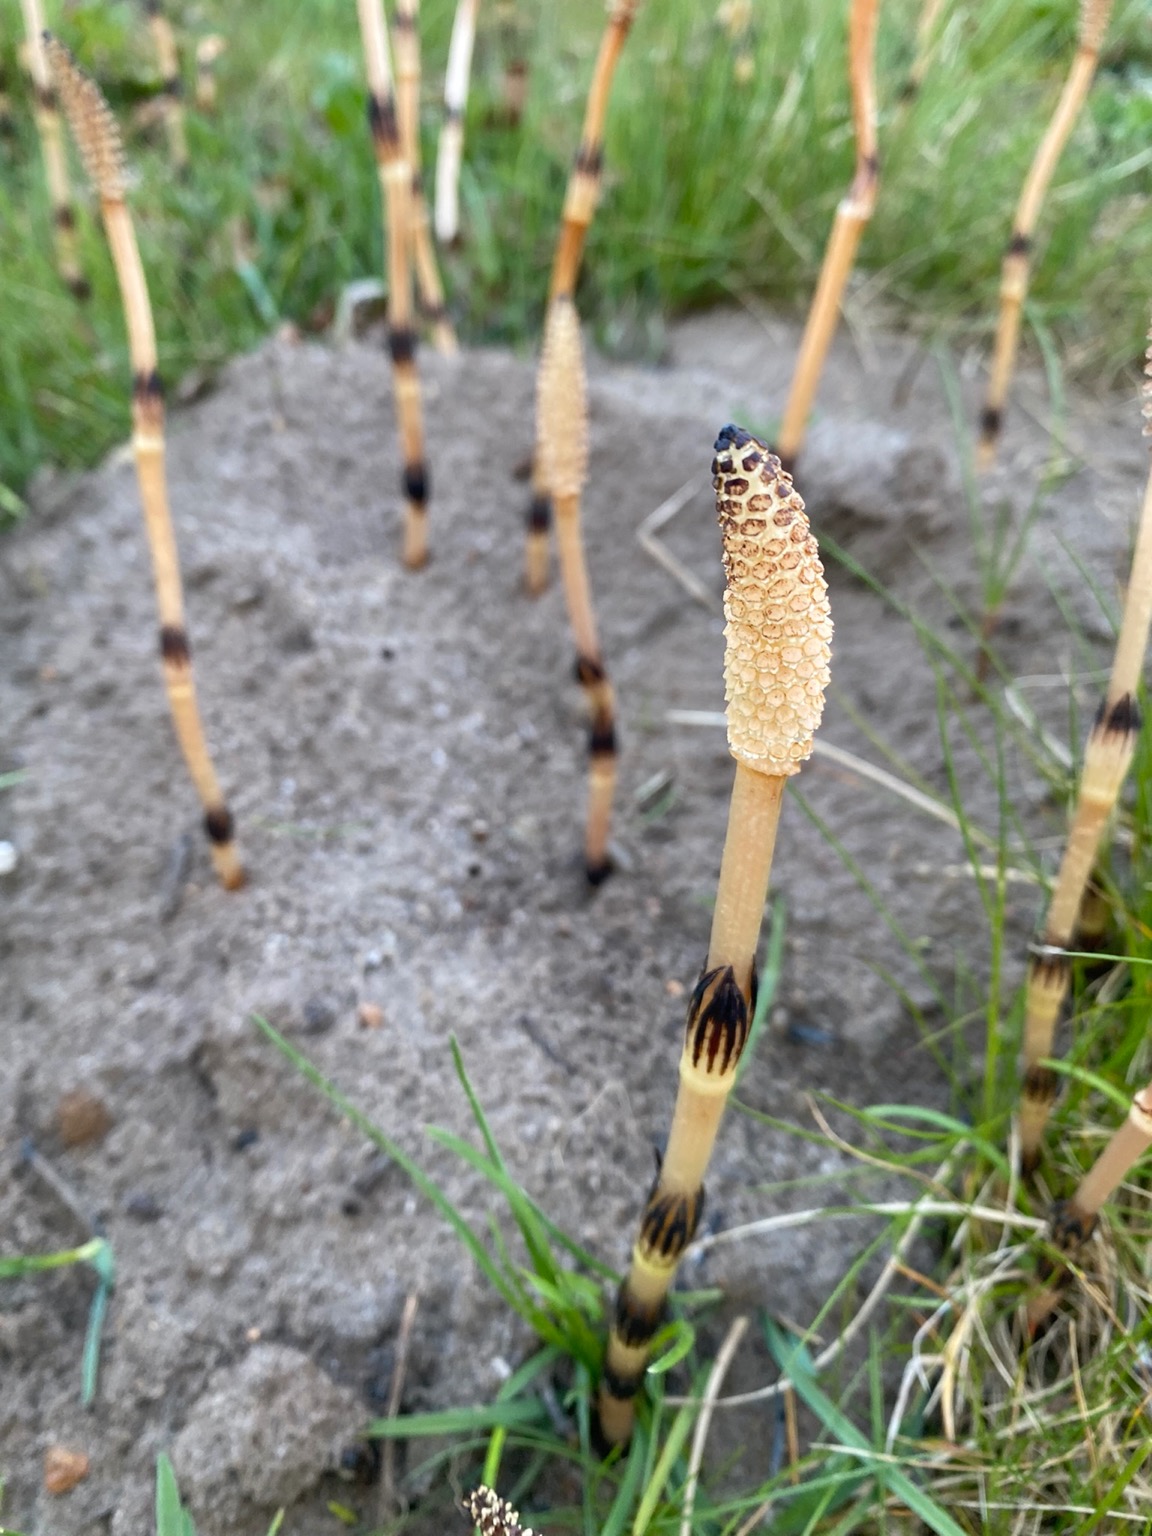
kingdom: Plantae
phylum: Tracheophyta
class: Polypodiopsida
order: Equisetales
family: Equisetaceae
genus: Equisetum
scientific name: Equisetum arvense
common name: Ager-padderok
